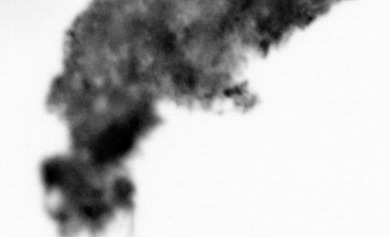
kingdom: Animalia
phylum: Chordata
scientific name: Chordata
